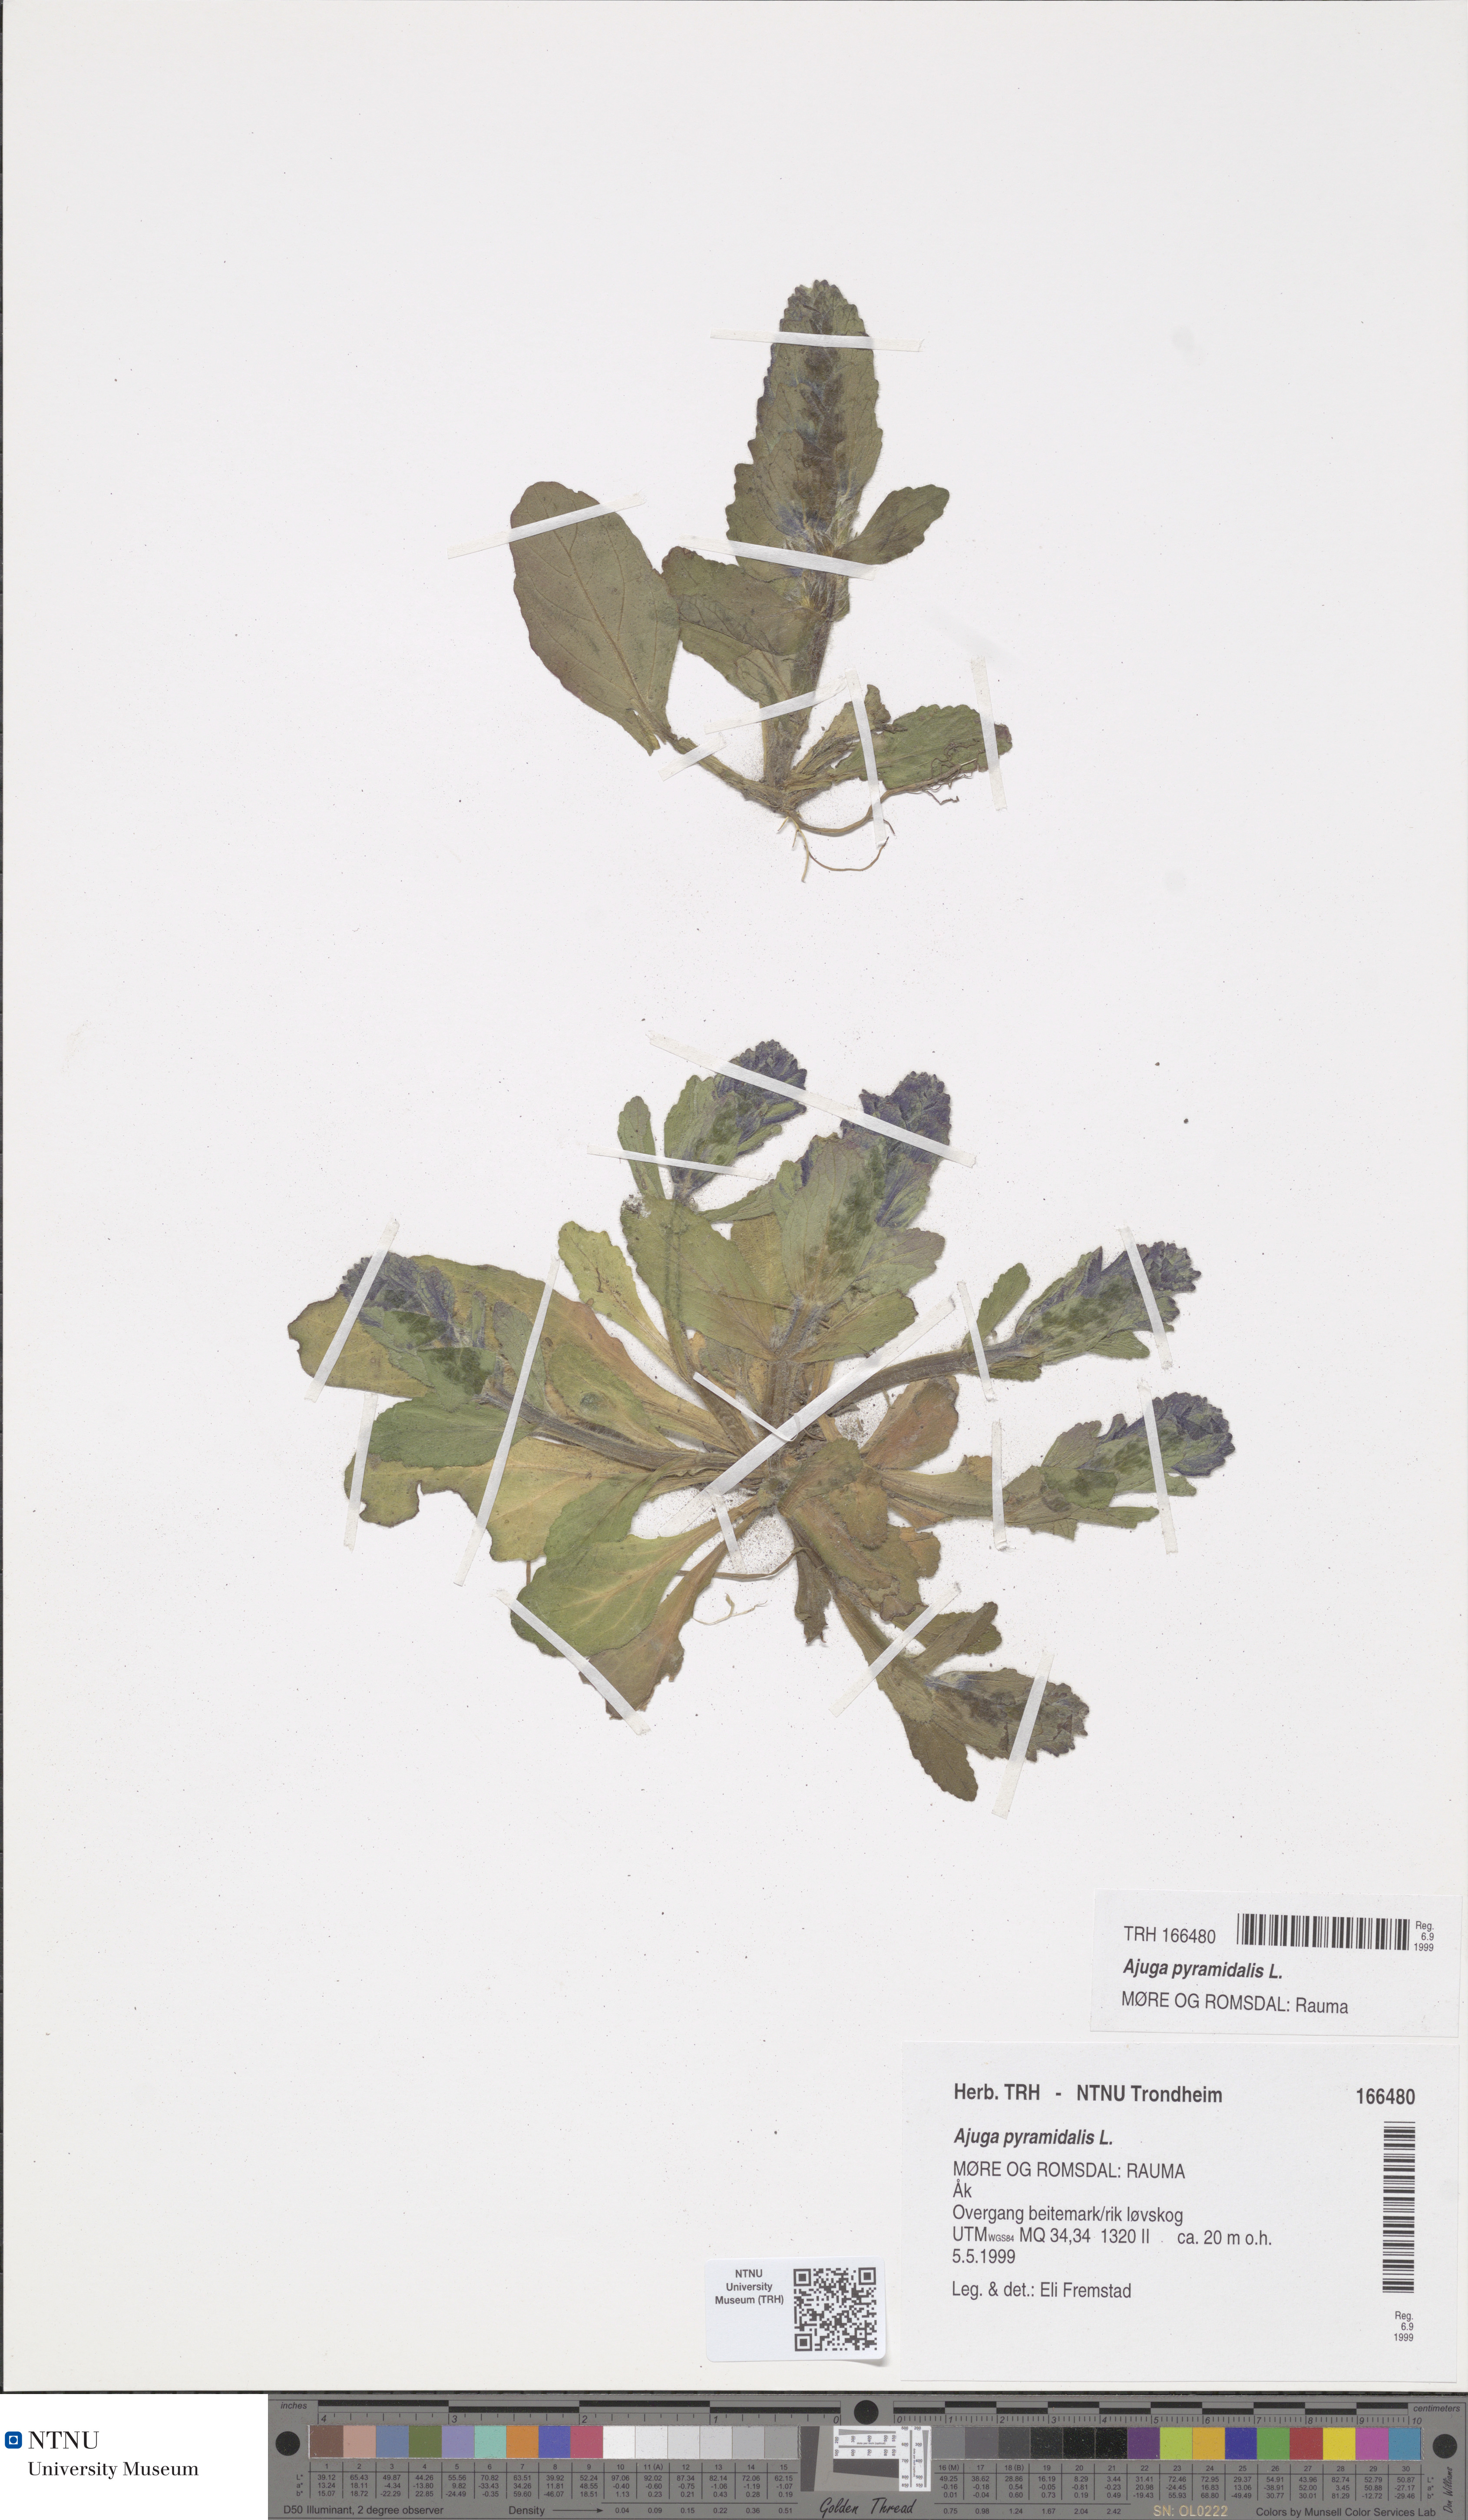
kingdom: Plantae
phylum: Tracheophyta
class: Magnoliopsida
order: Lamiales
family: Lamiaceae
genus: Ajuga
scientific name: Ajuga pyramidalis
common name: Pyramid bugle
